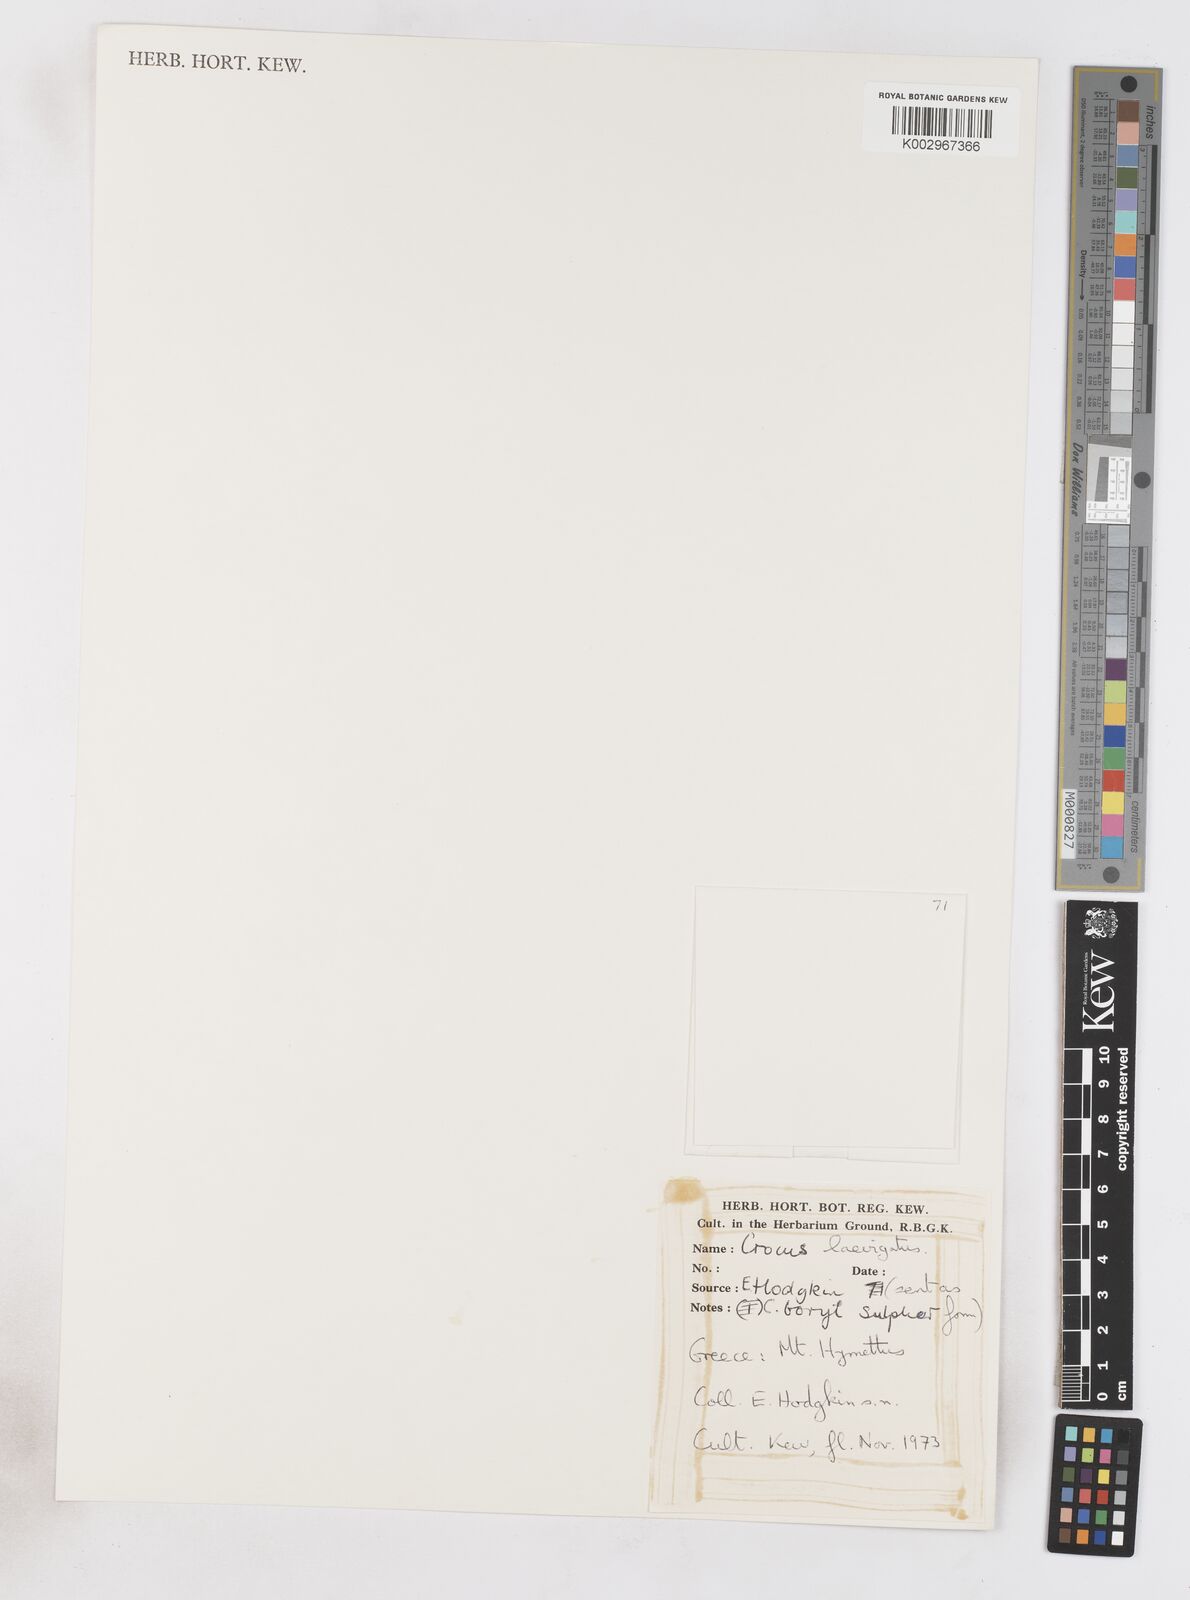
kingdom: Plantae
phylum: Tracheophyta
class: Liliopsida
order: Asparagales
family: Iridaceae
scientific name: Iridaceae
